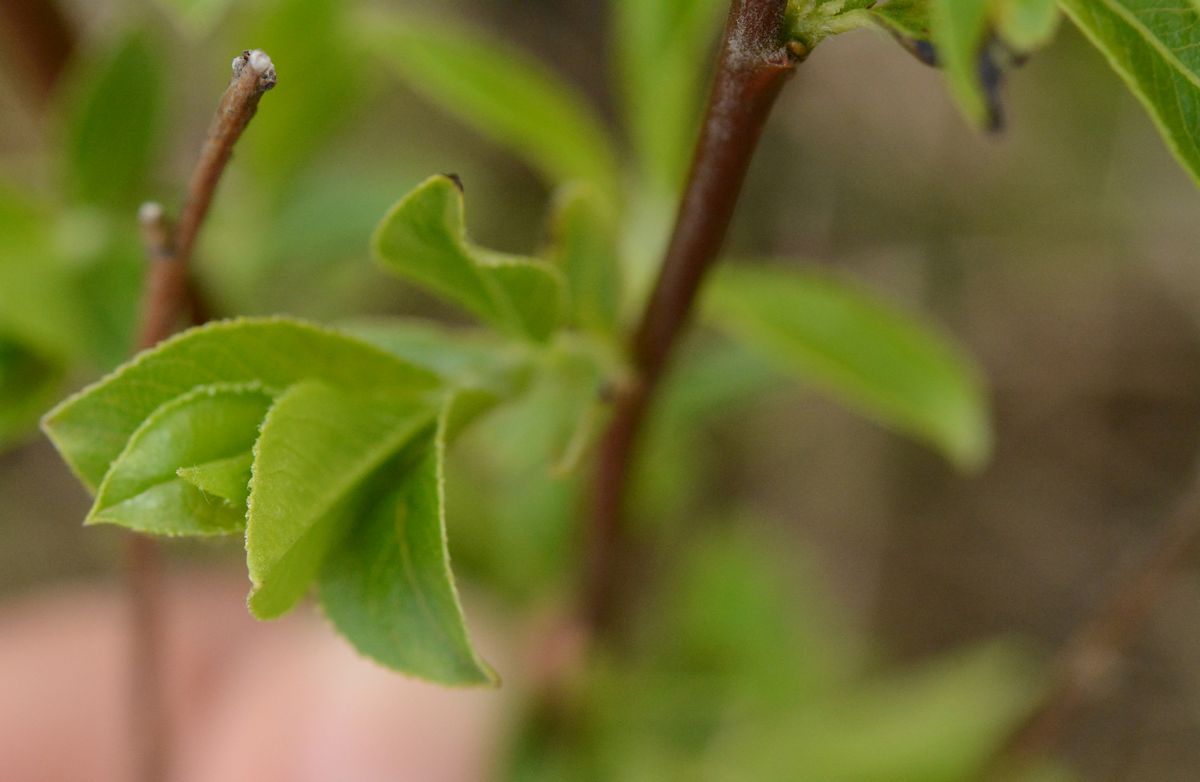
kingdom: Plantae
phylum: Tracheophyta
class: Magnoliopsida
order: Malpighiales
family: Salicaceae
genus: Salix
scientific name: Salix
